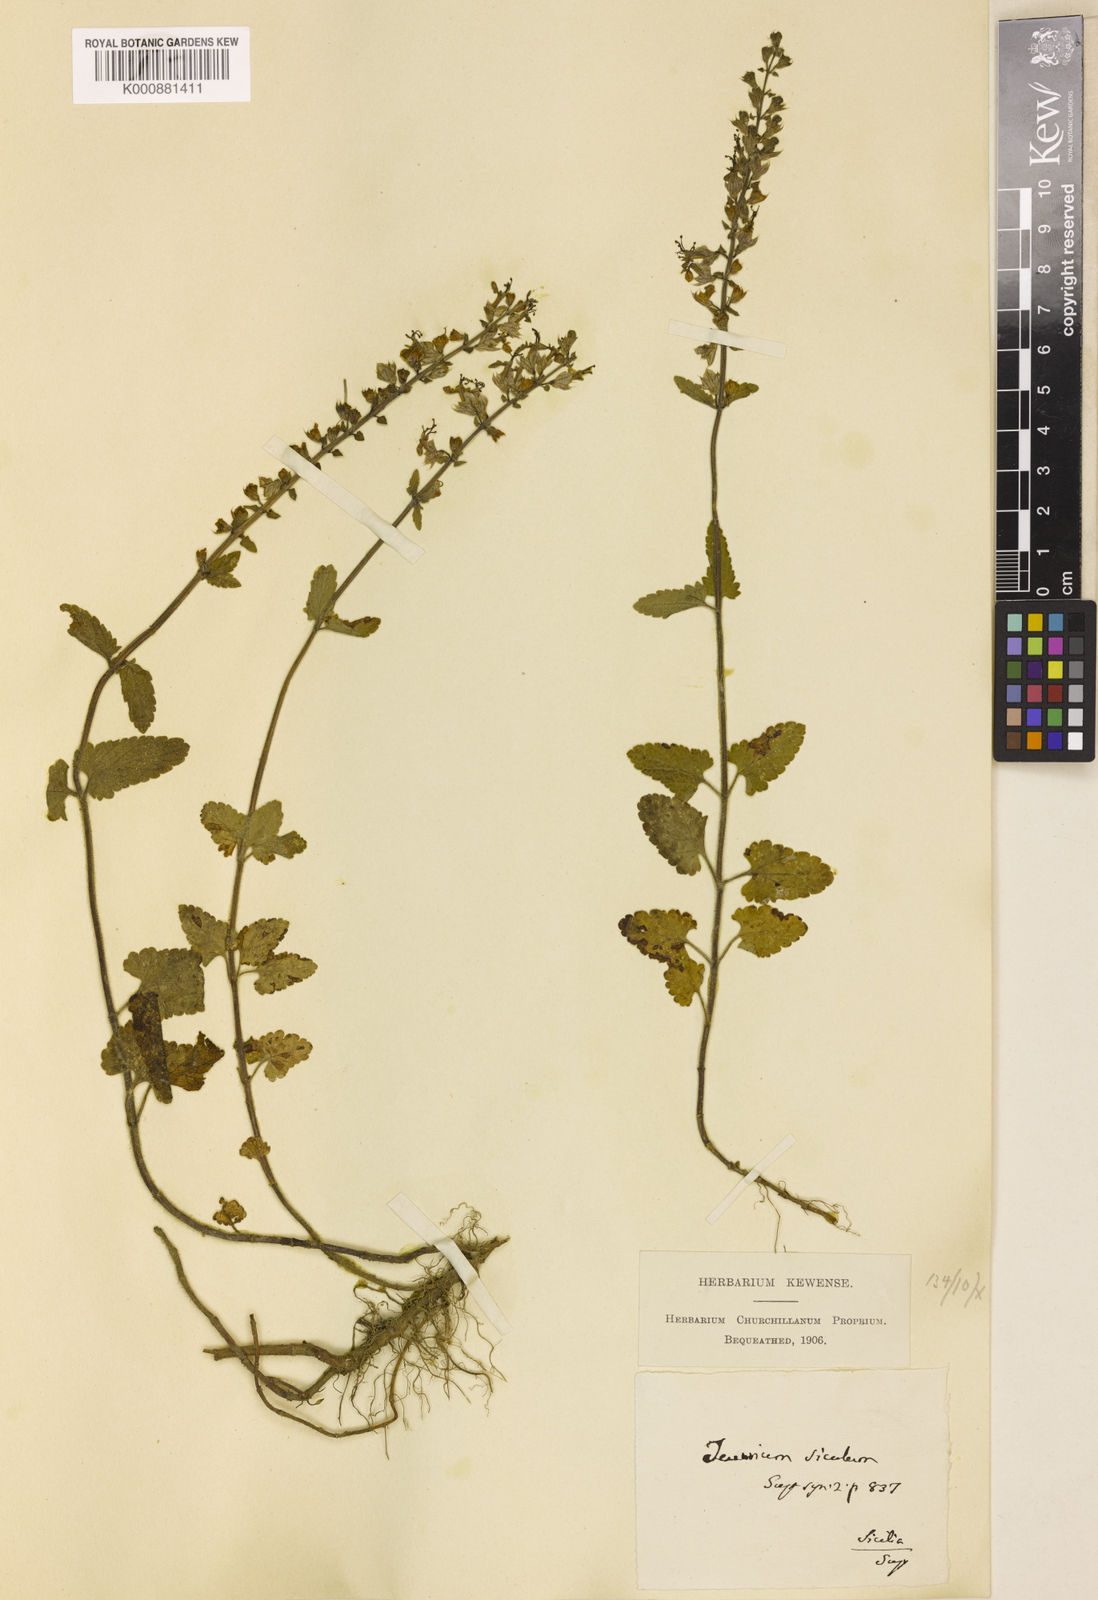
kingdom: Plantae
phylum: Tracheophyta
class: Magnoliopsida
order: Lamiales
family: Lamiaceae
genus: Teucrium
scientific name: Teucrium scorodonia
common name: Woodland germander
